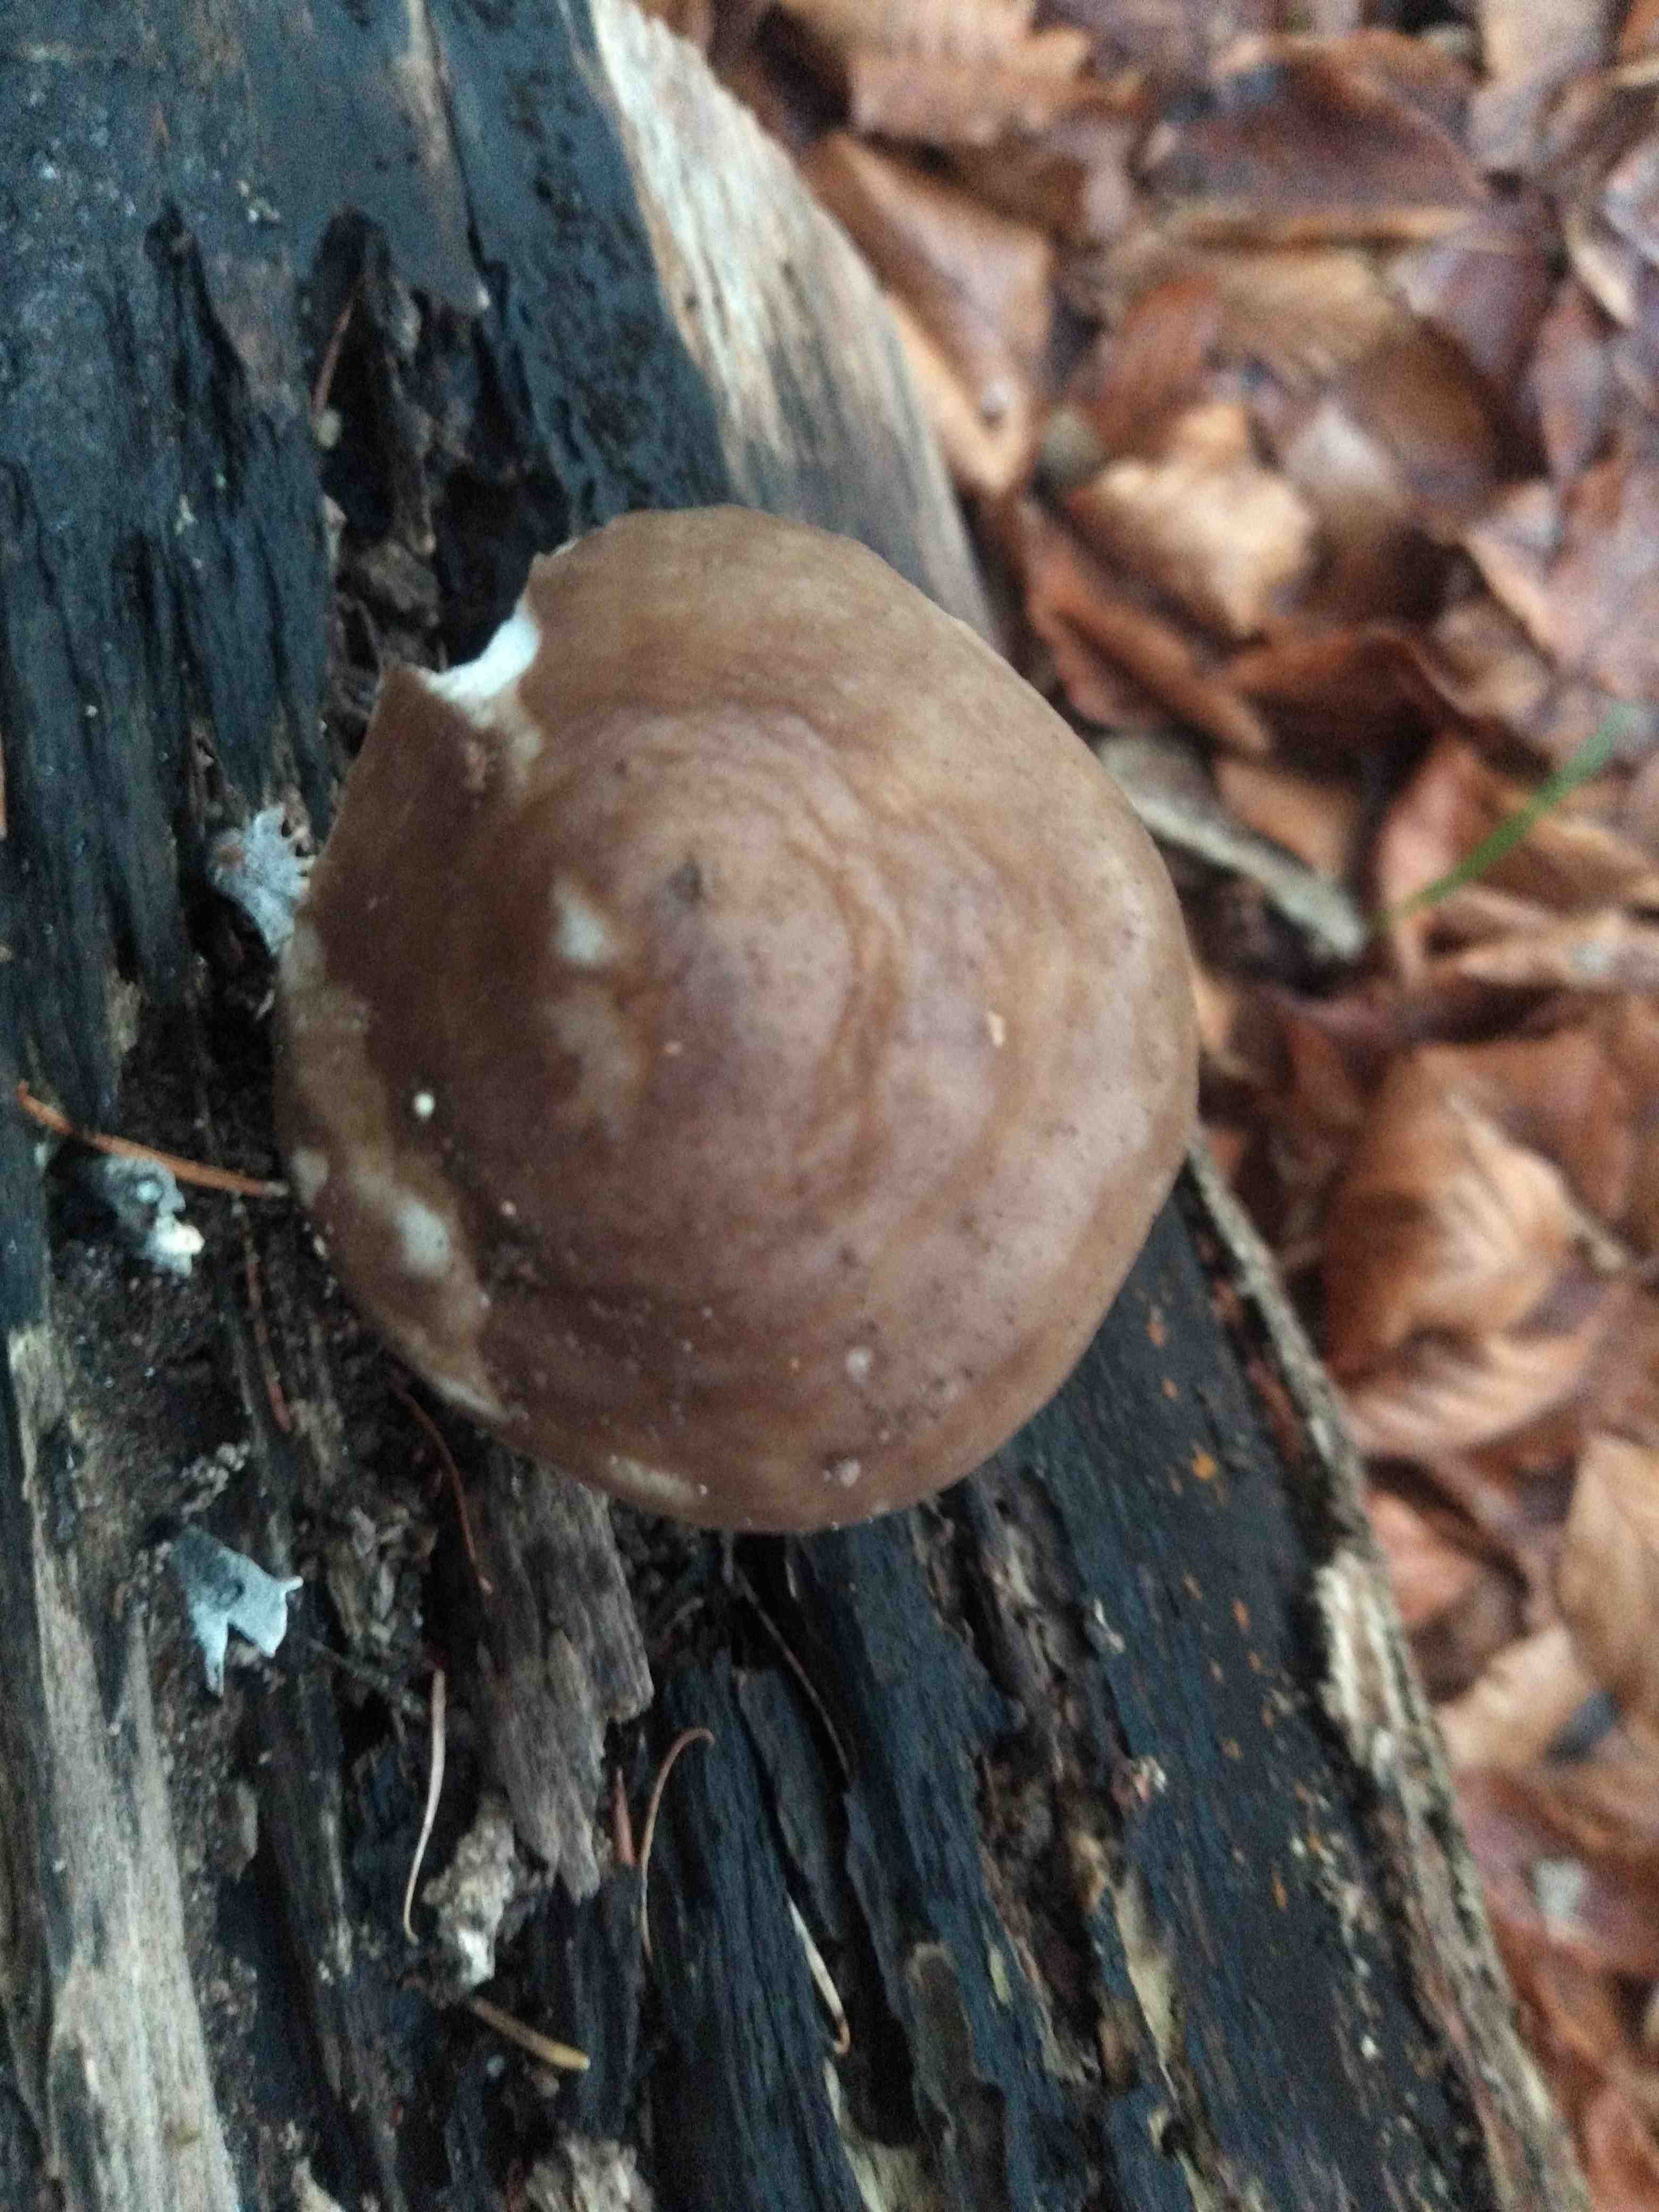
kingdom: Fungi
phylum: Basidiomycota
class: Agaricomycetes
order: Agaricales
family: Pluteaceae
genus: Pluteus
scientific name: Pluteus cervinus
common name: sodfarvet skærmhat
